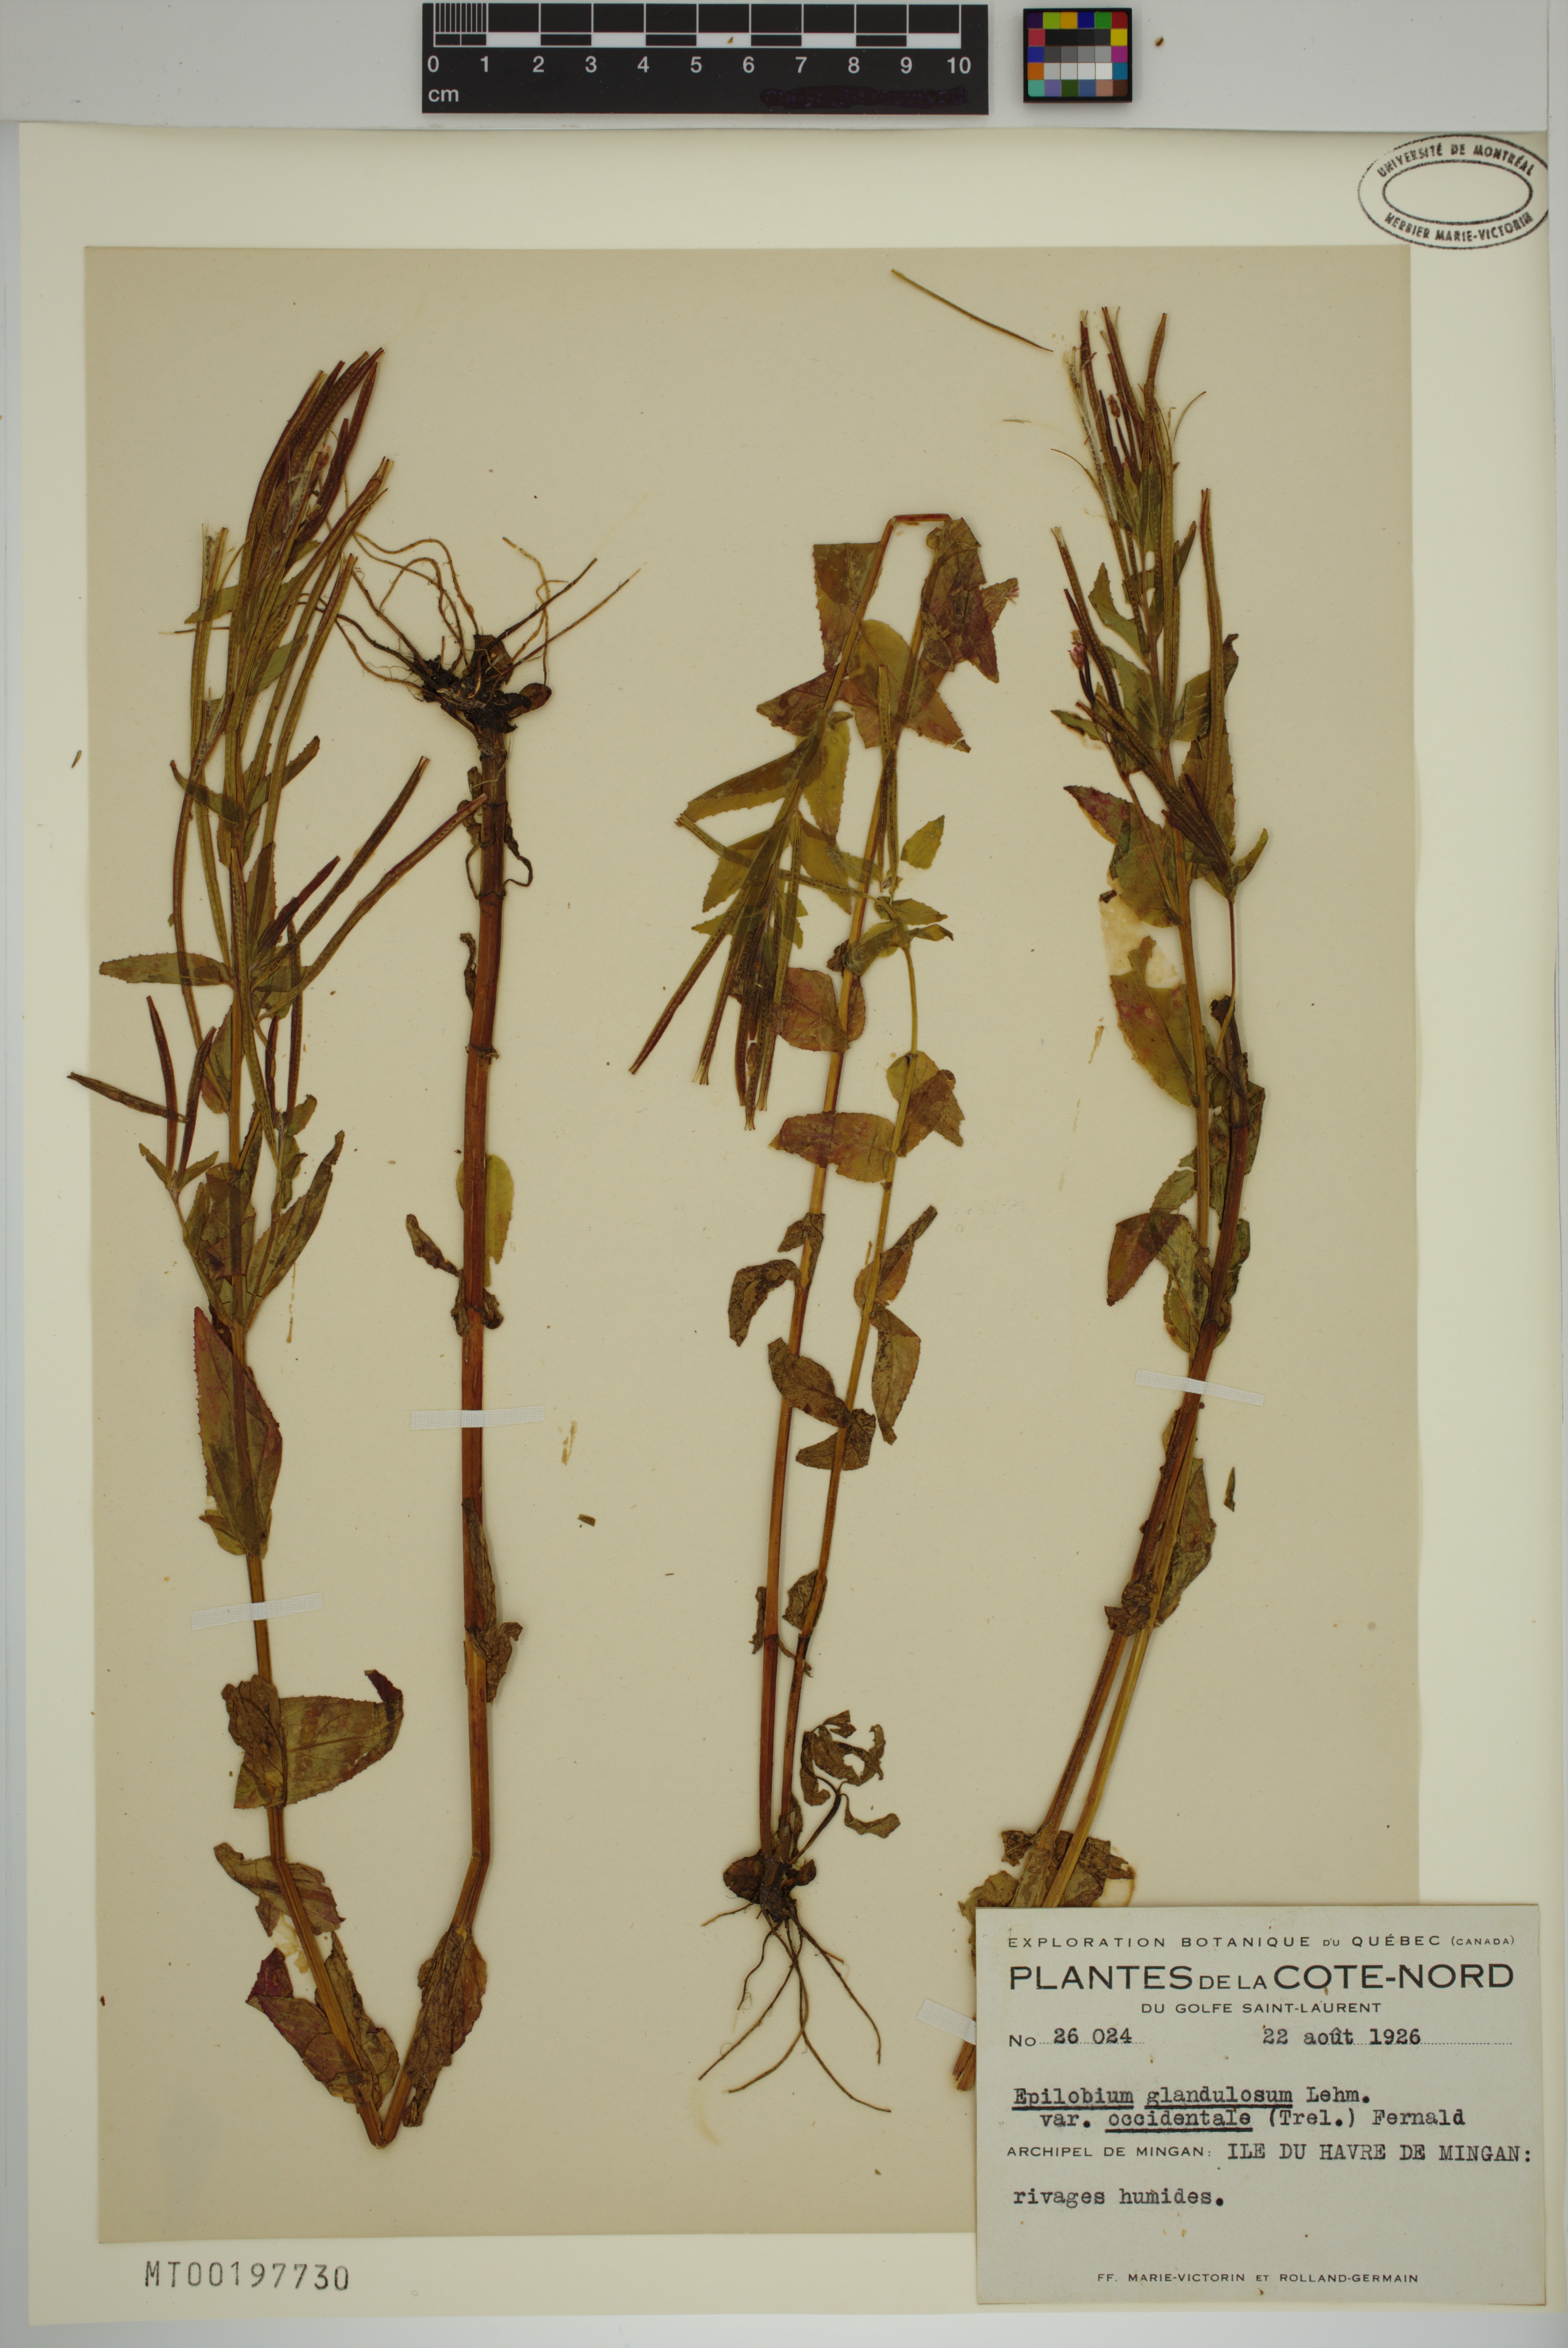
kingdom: Plantae
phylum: Tracheophyta
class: Magnoliopsida
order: Myrtales
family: Onagraceae
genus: Epilobium
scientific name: Epilobium ciliatum
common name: American willowherb
